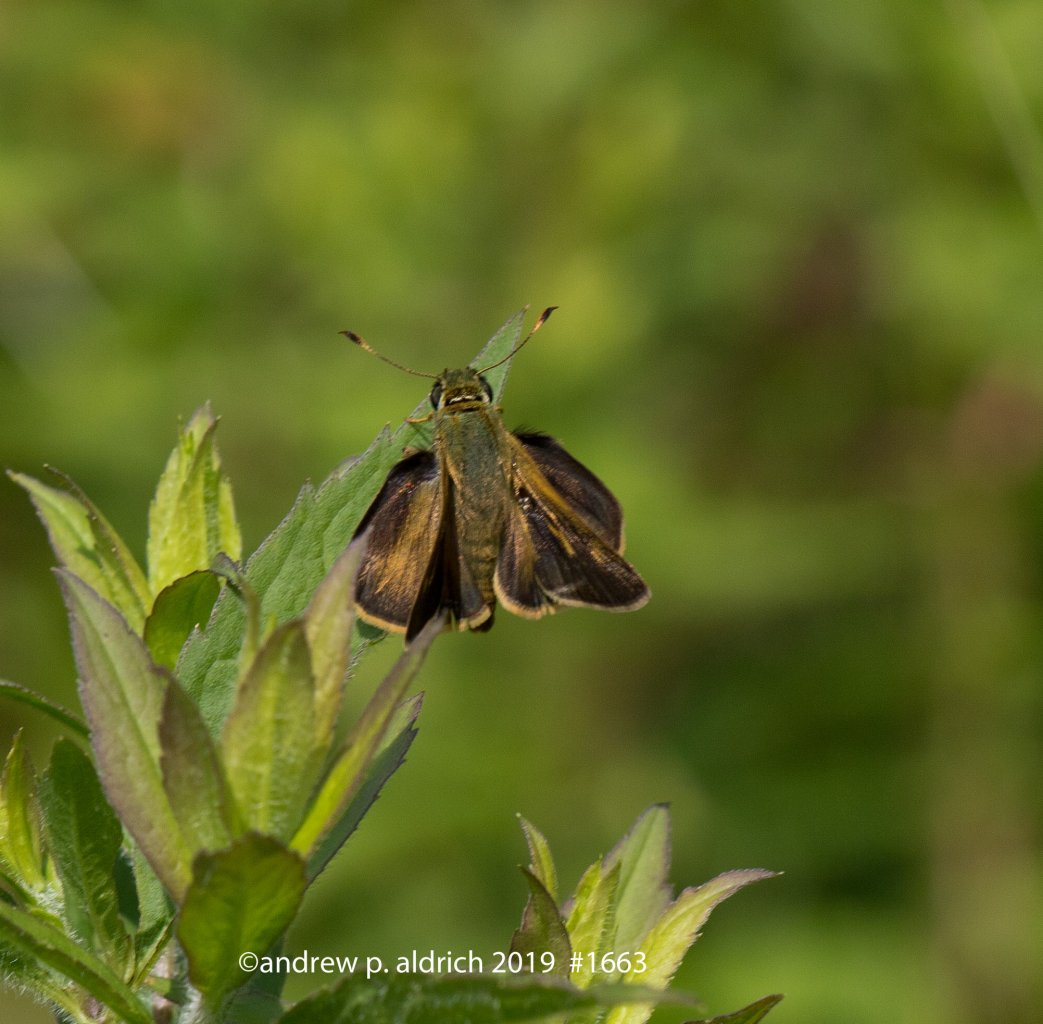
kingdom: Animalia
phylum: Arthropoda
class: Insecta
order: Lepidoptera
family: Hesperiidae
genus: Thymelicus
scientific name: Thymelicus lineola
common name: European Skipper
